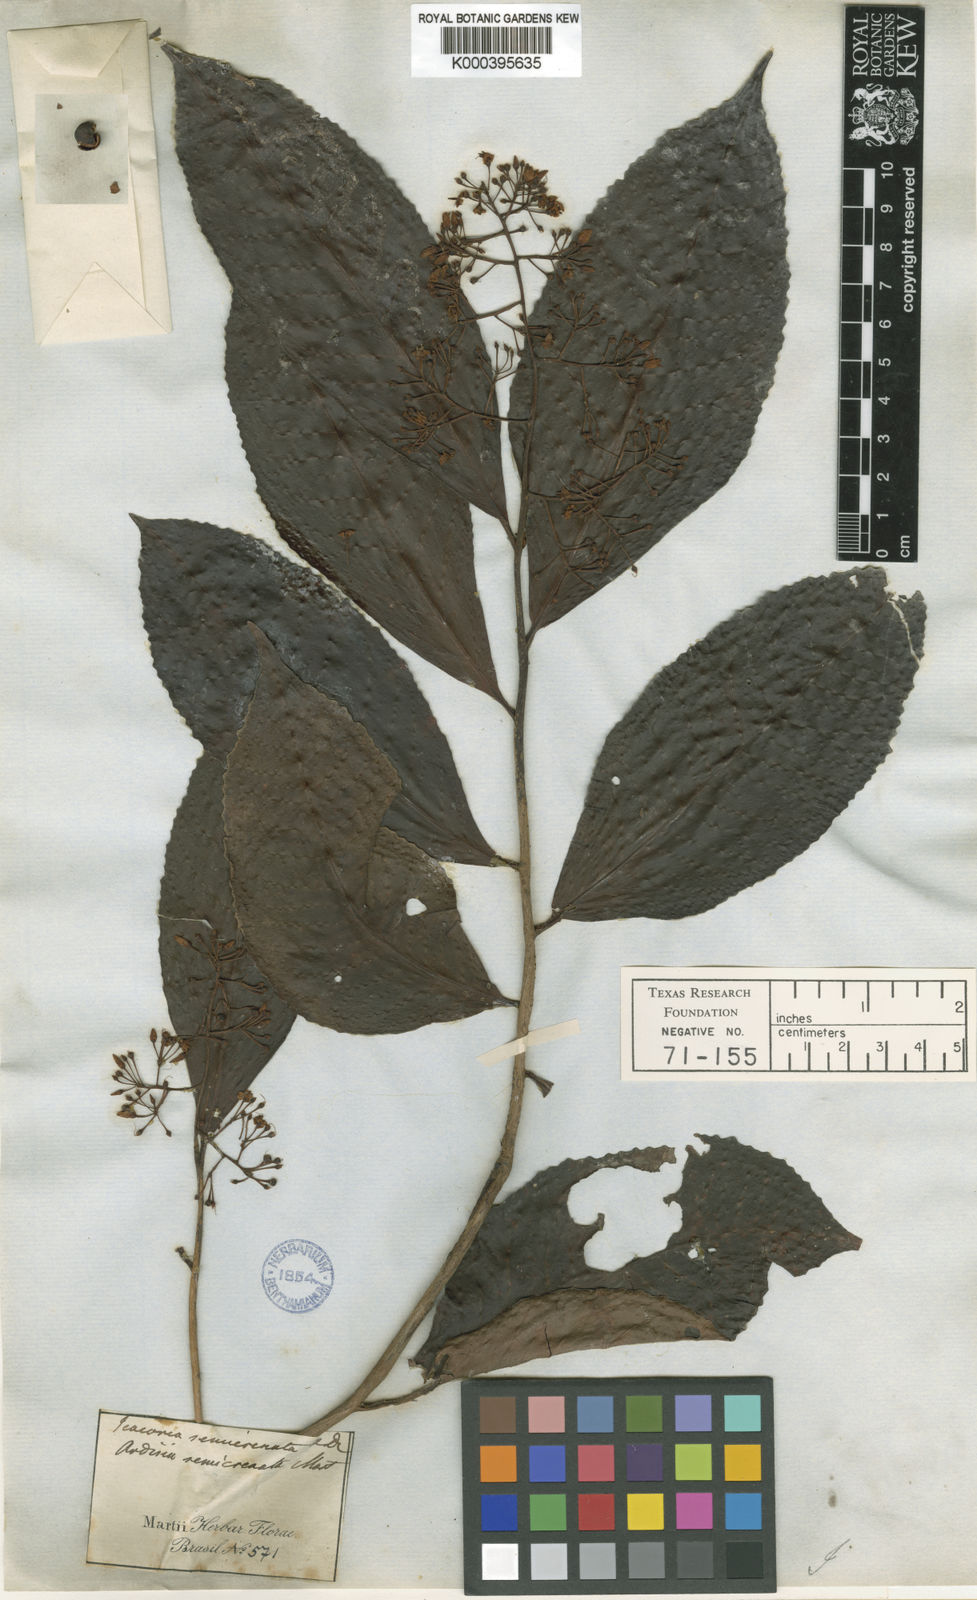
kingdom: Plantae
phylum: Tracheophyta
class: Magnoliopsida
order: Ericales
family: Primulaceae
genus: Ardisia
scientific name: Ardisia guianensis
